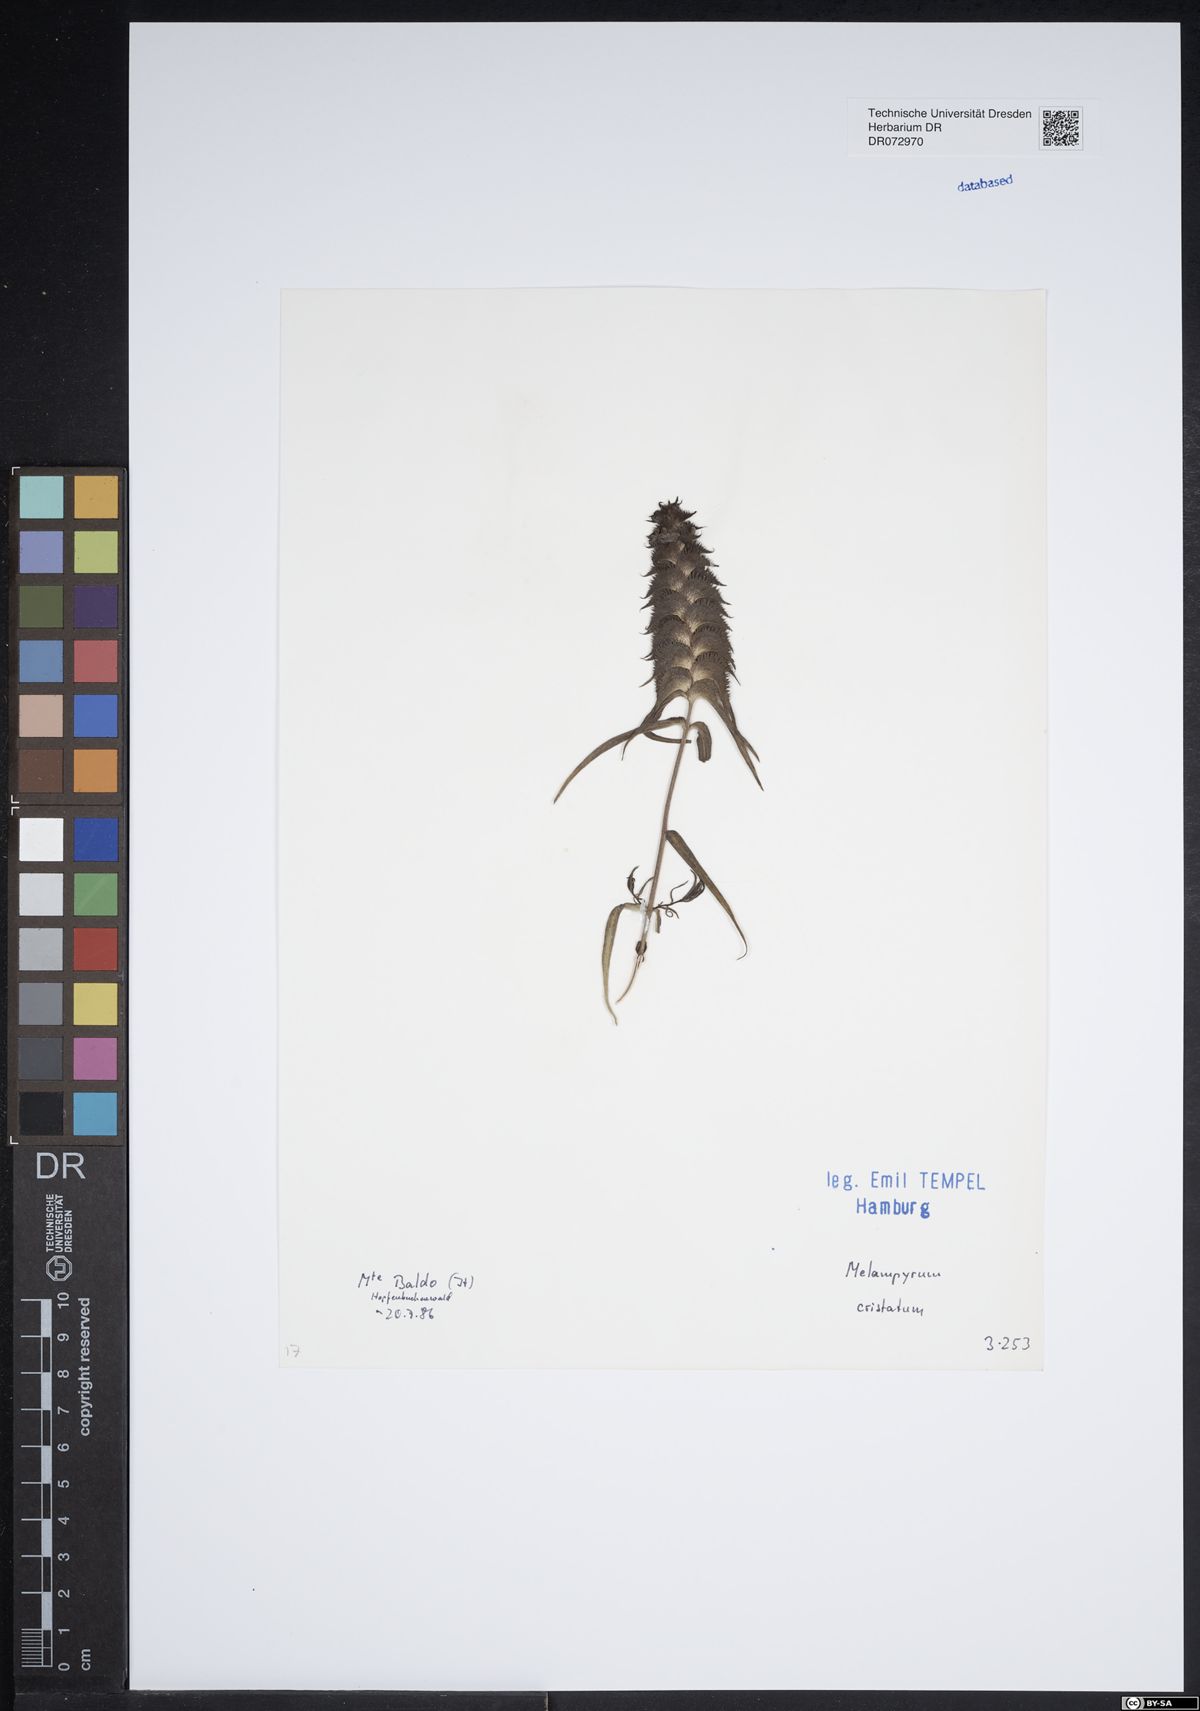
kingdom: Plantae
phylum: Tracheophyta
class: Magnoliopsida
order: Lamiales
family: Orobanchaceae
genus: Melampyrum
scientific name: Melampyrum cristatum
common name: Crested cow-wheat
